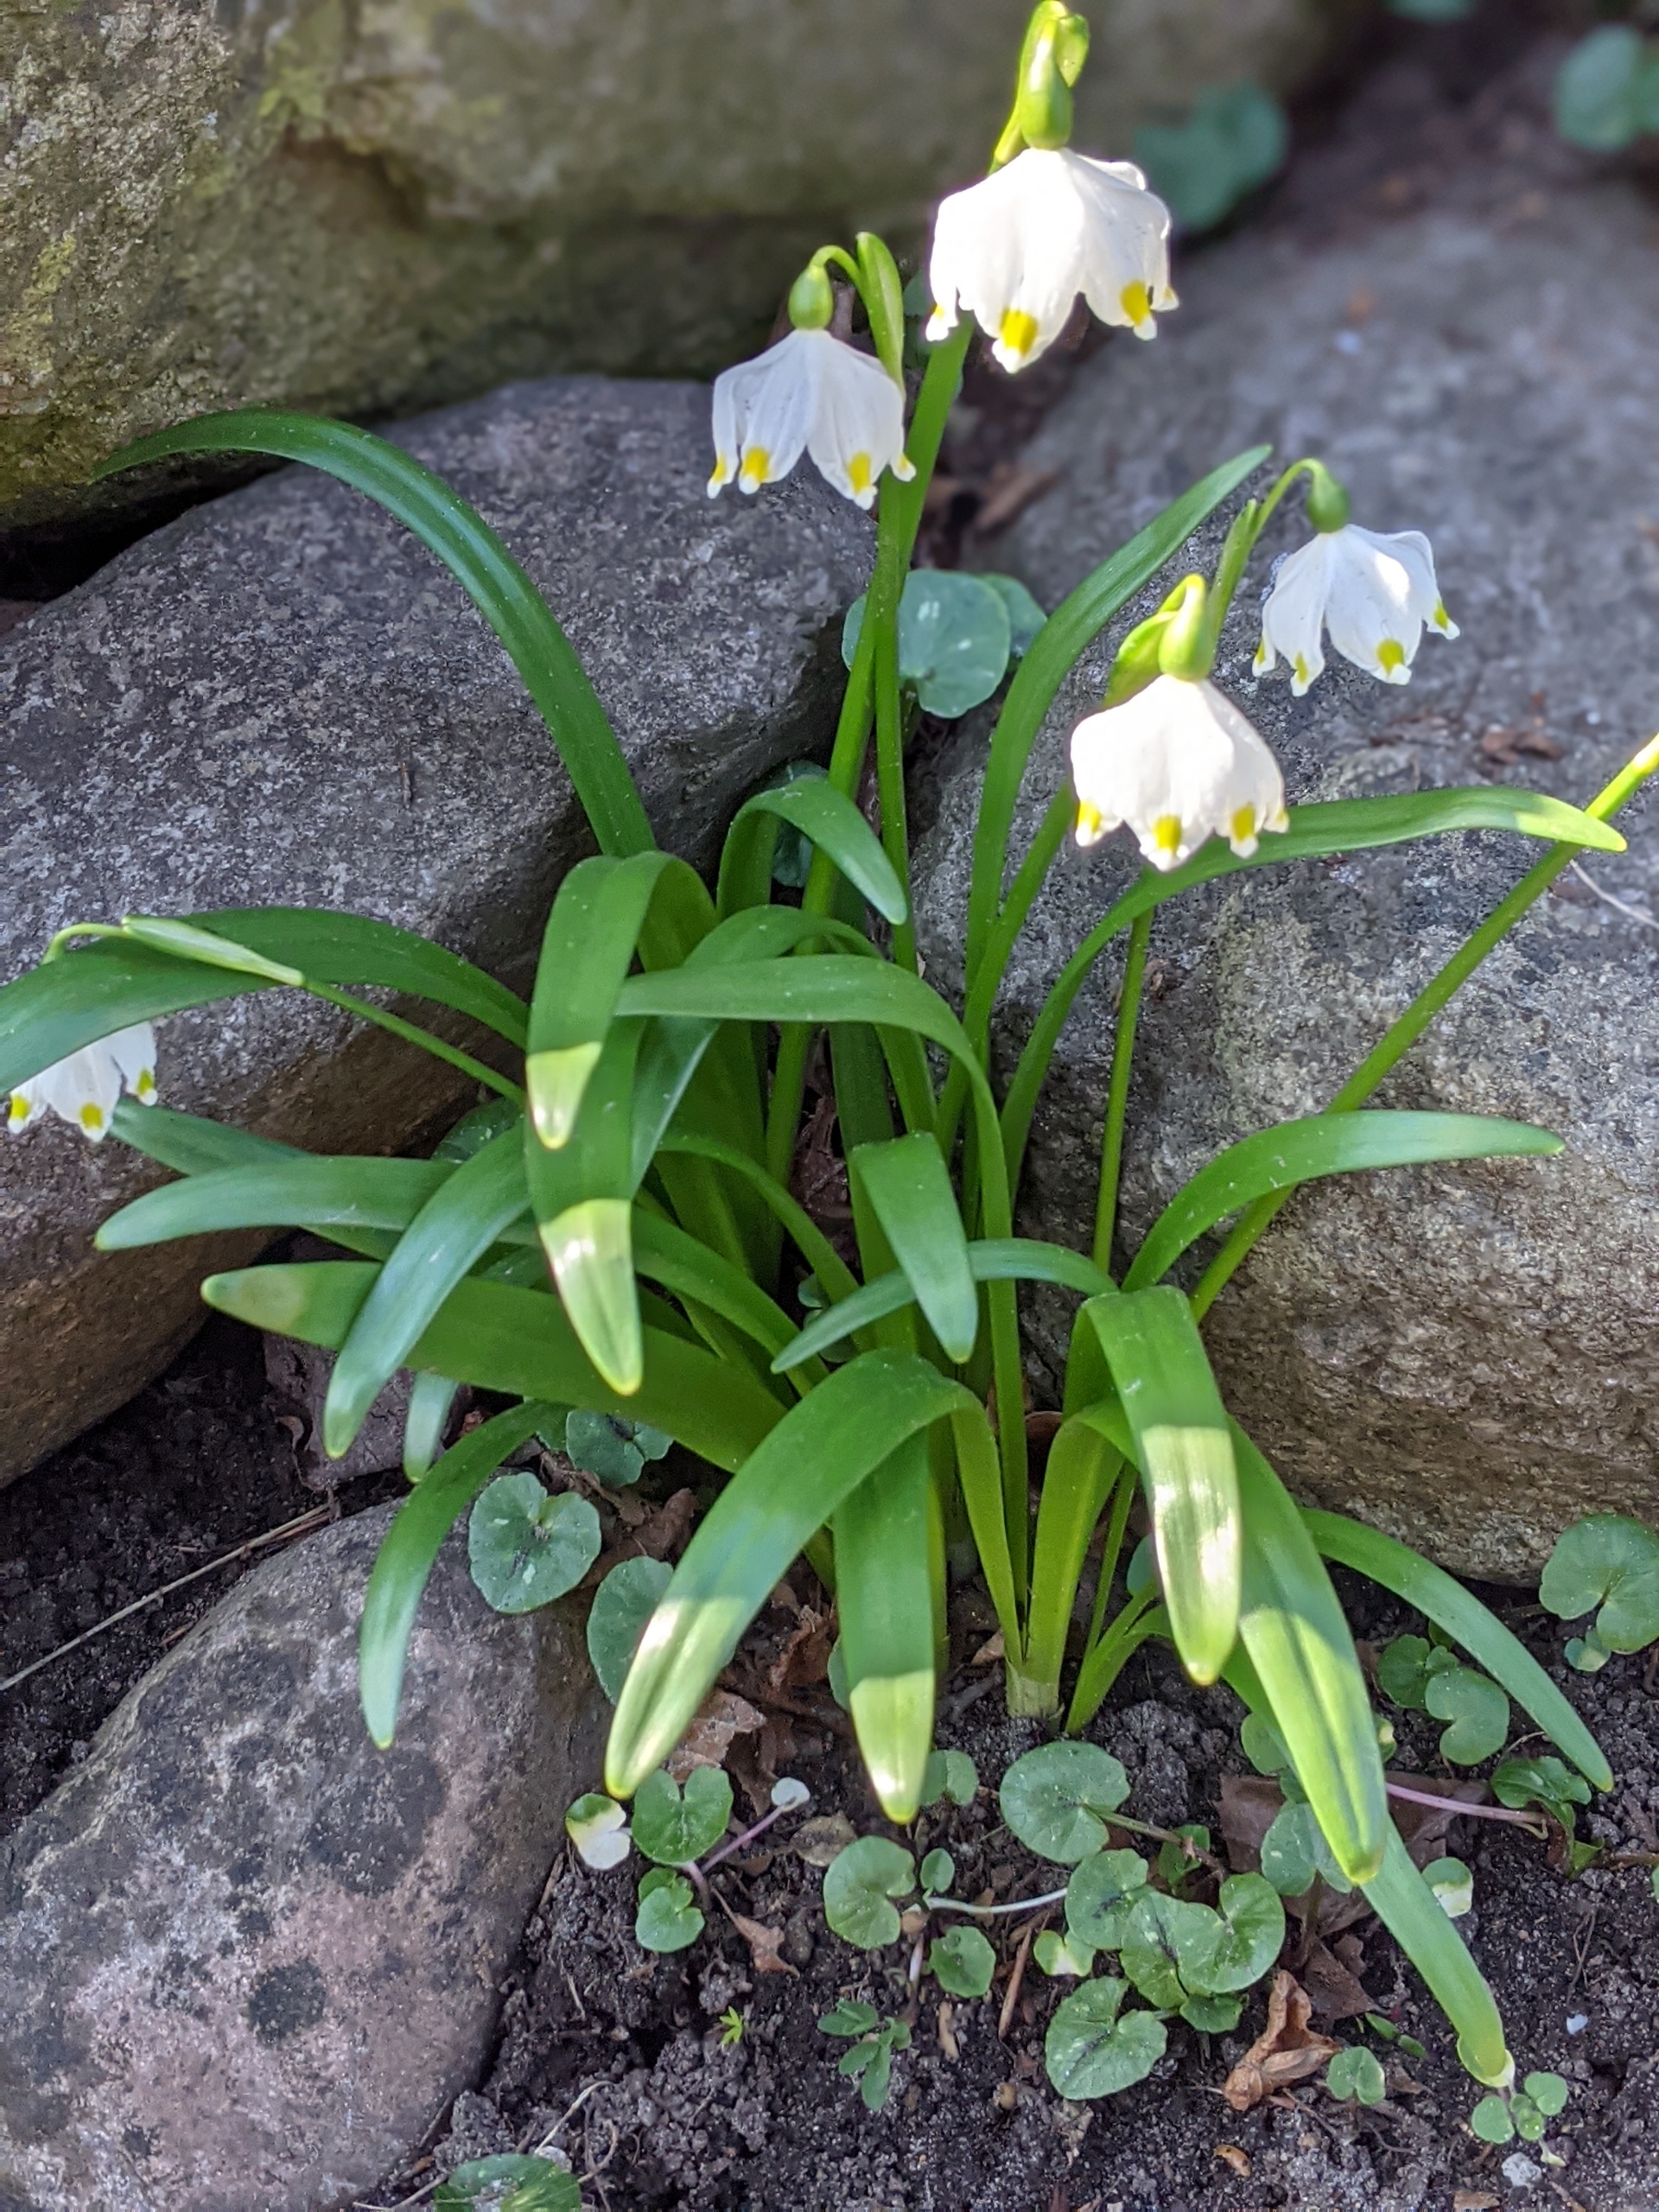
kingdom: Plantae
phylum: Tracheophyta
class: Liliopsida
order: Asparagales
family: Amaryllidaceae
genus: Leucojum
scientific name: Leucojum vernum
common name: Dorthealilje
